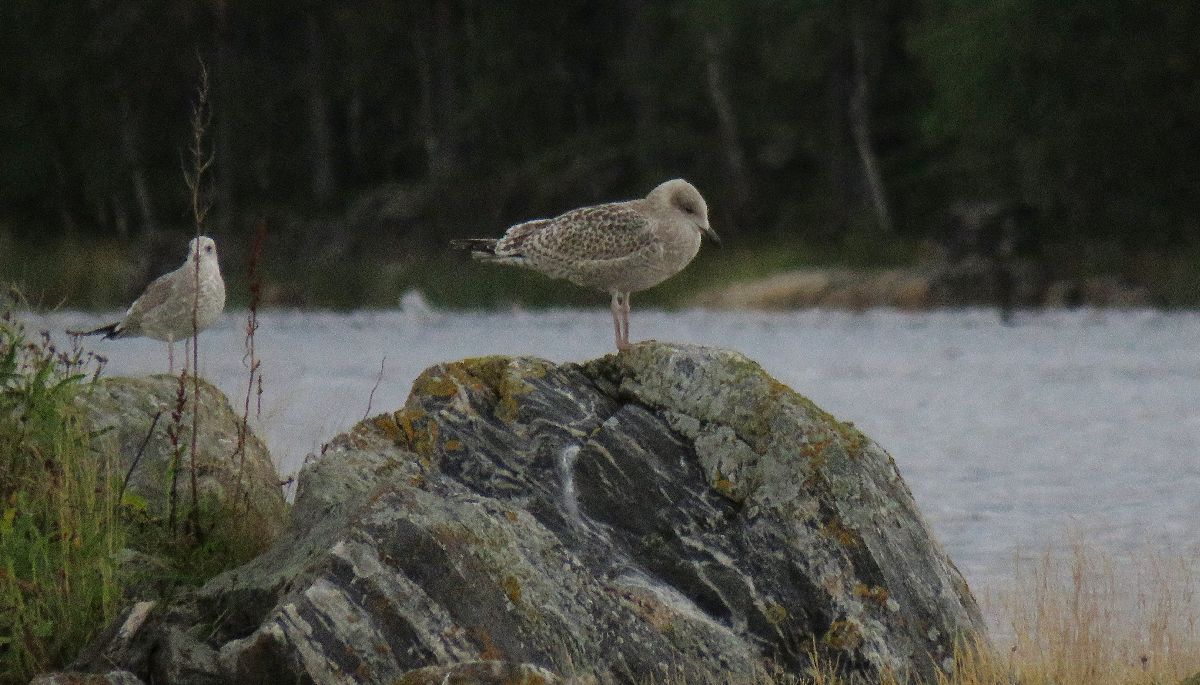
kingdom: Animalia
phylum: Chordata
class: Aves
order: Charadriiformes
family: Laridae
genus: Larus
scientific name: Larus marinus
